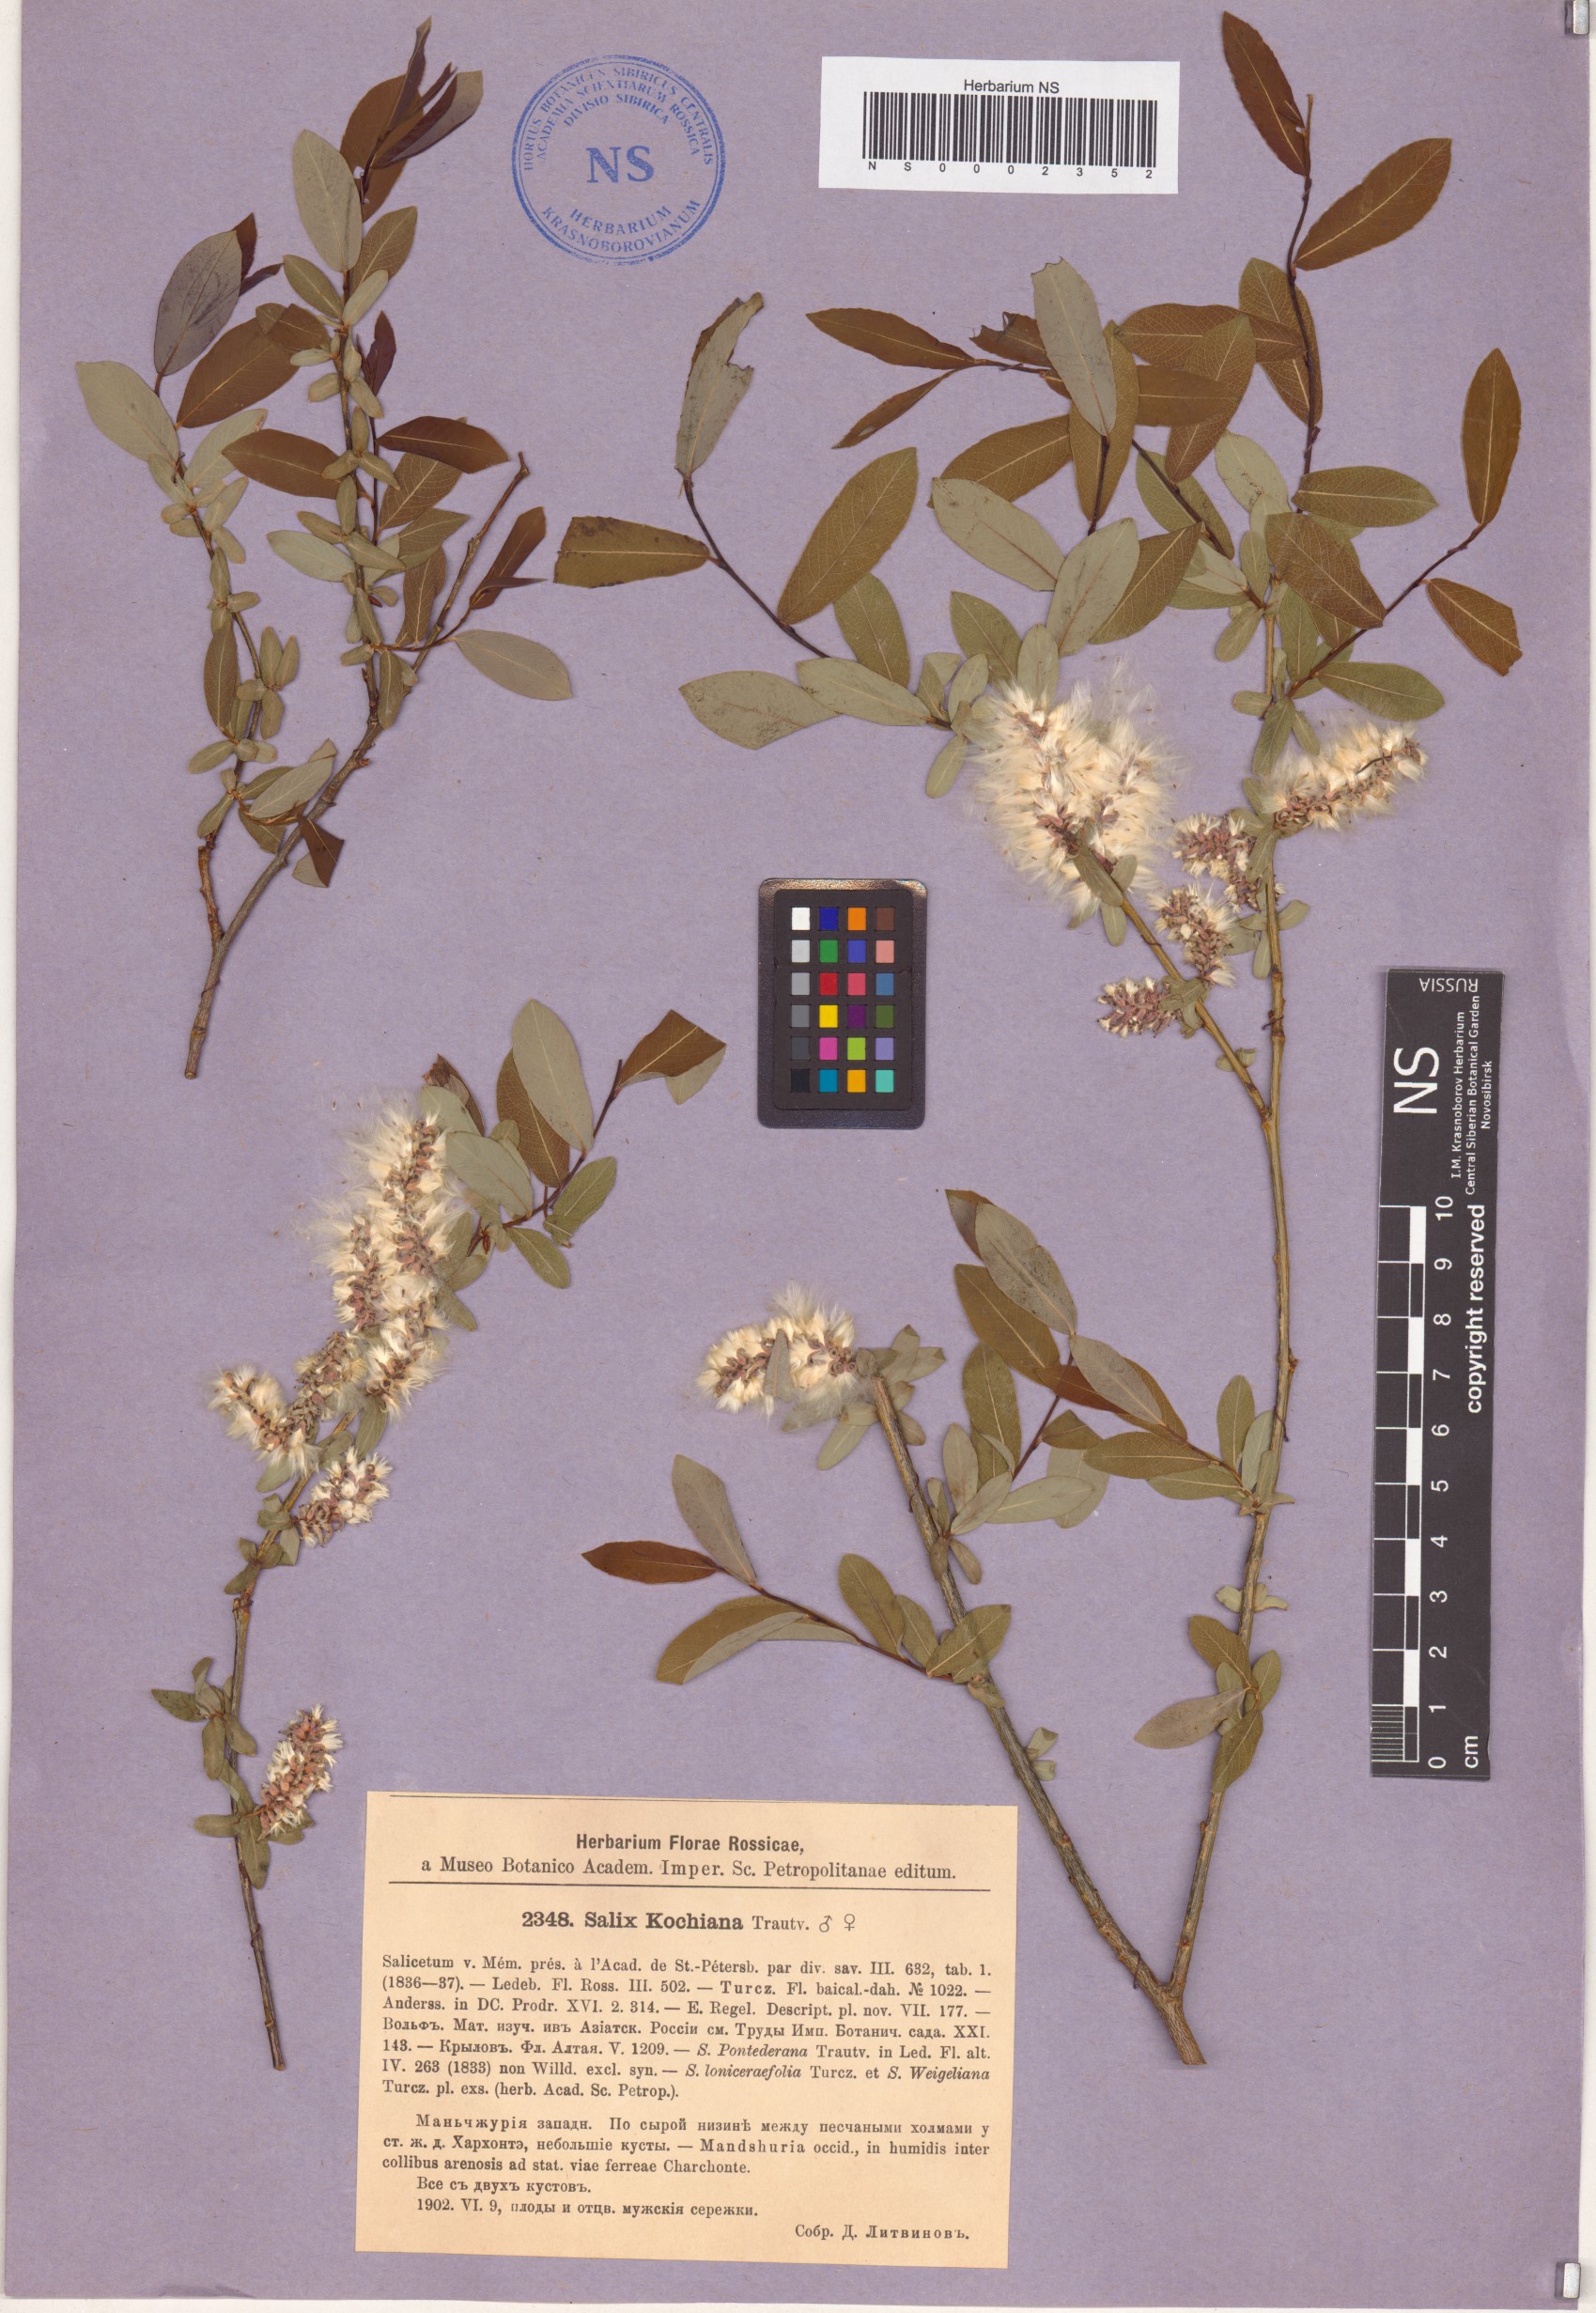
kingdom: Plantae
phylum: Tracheophyta
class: Magnoliopsida
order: Malpighiales
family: Salicaceae
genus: Salix
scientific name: Salix kochiana
